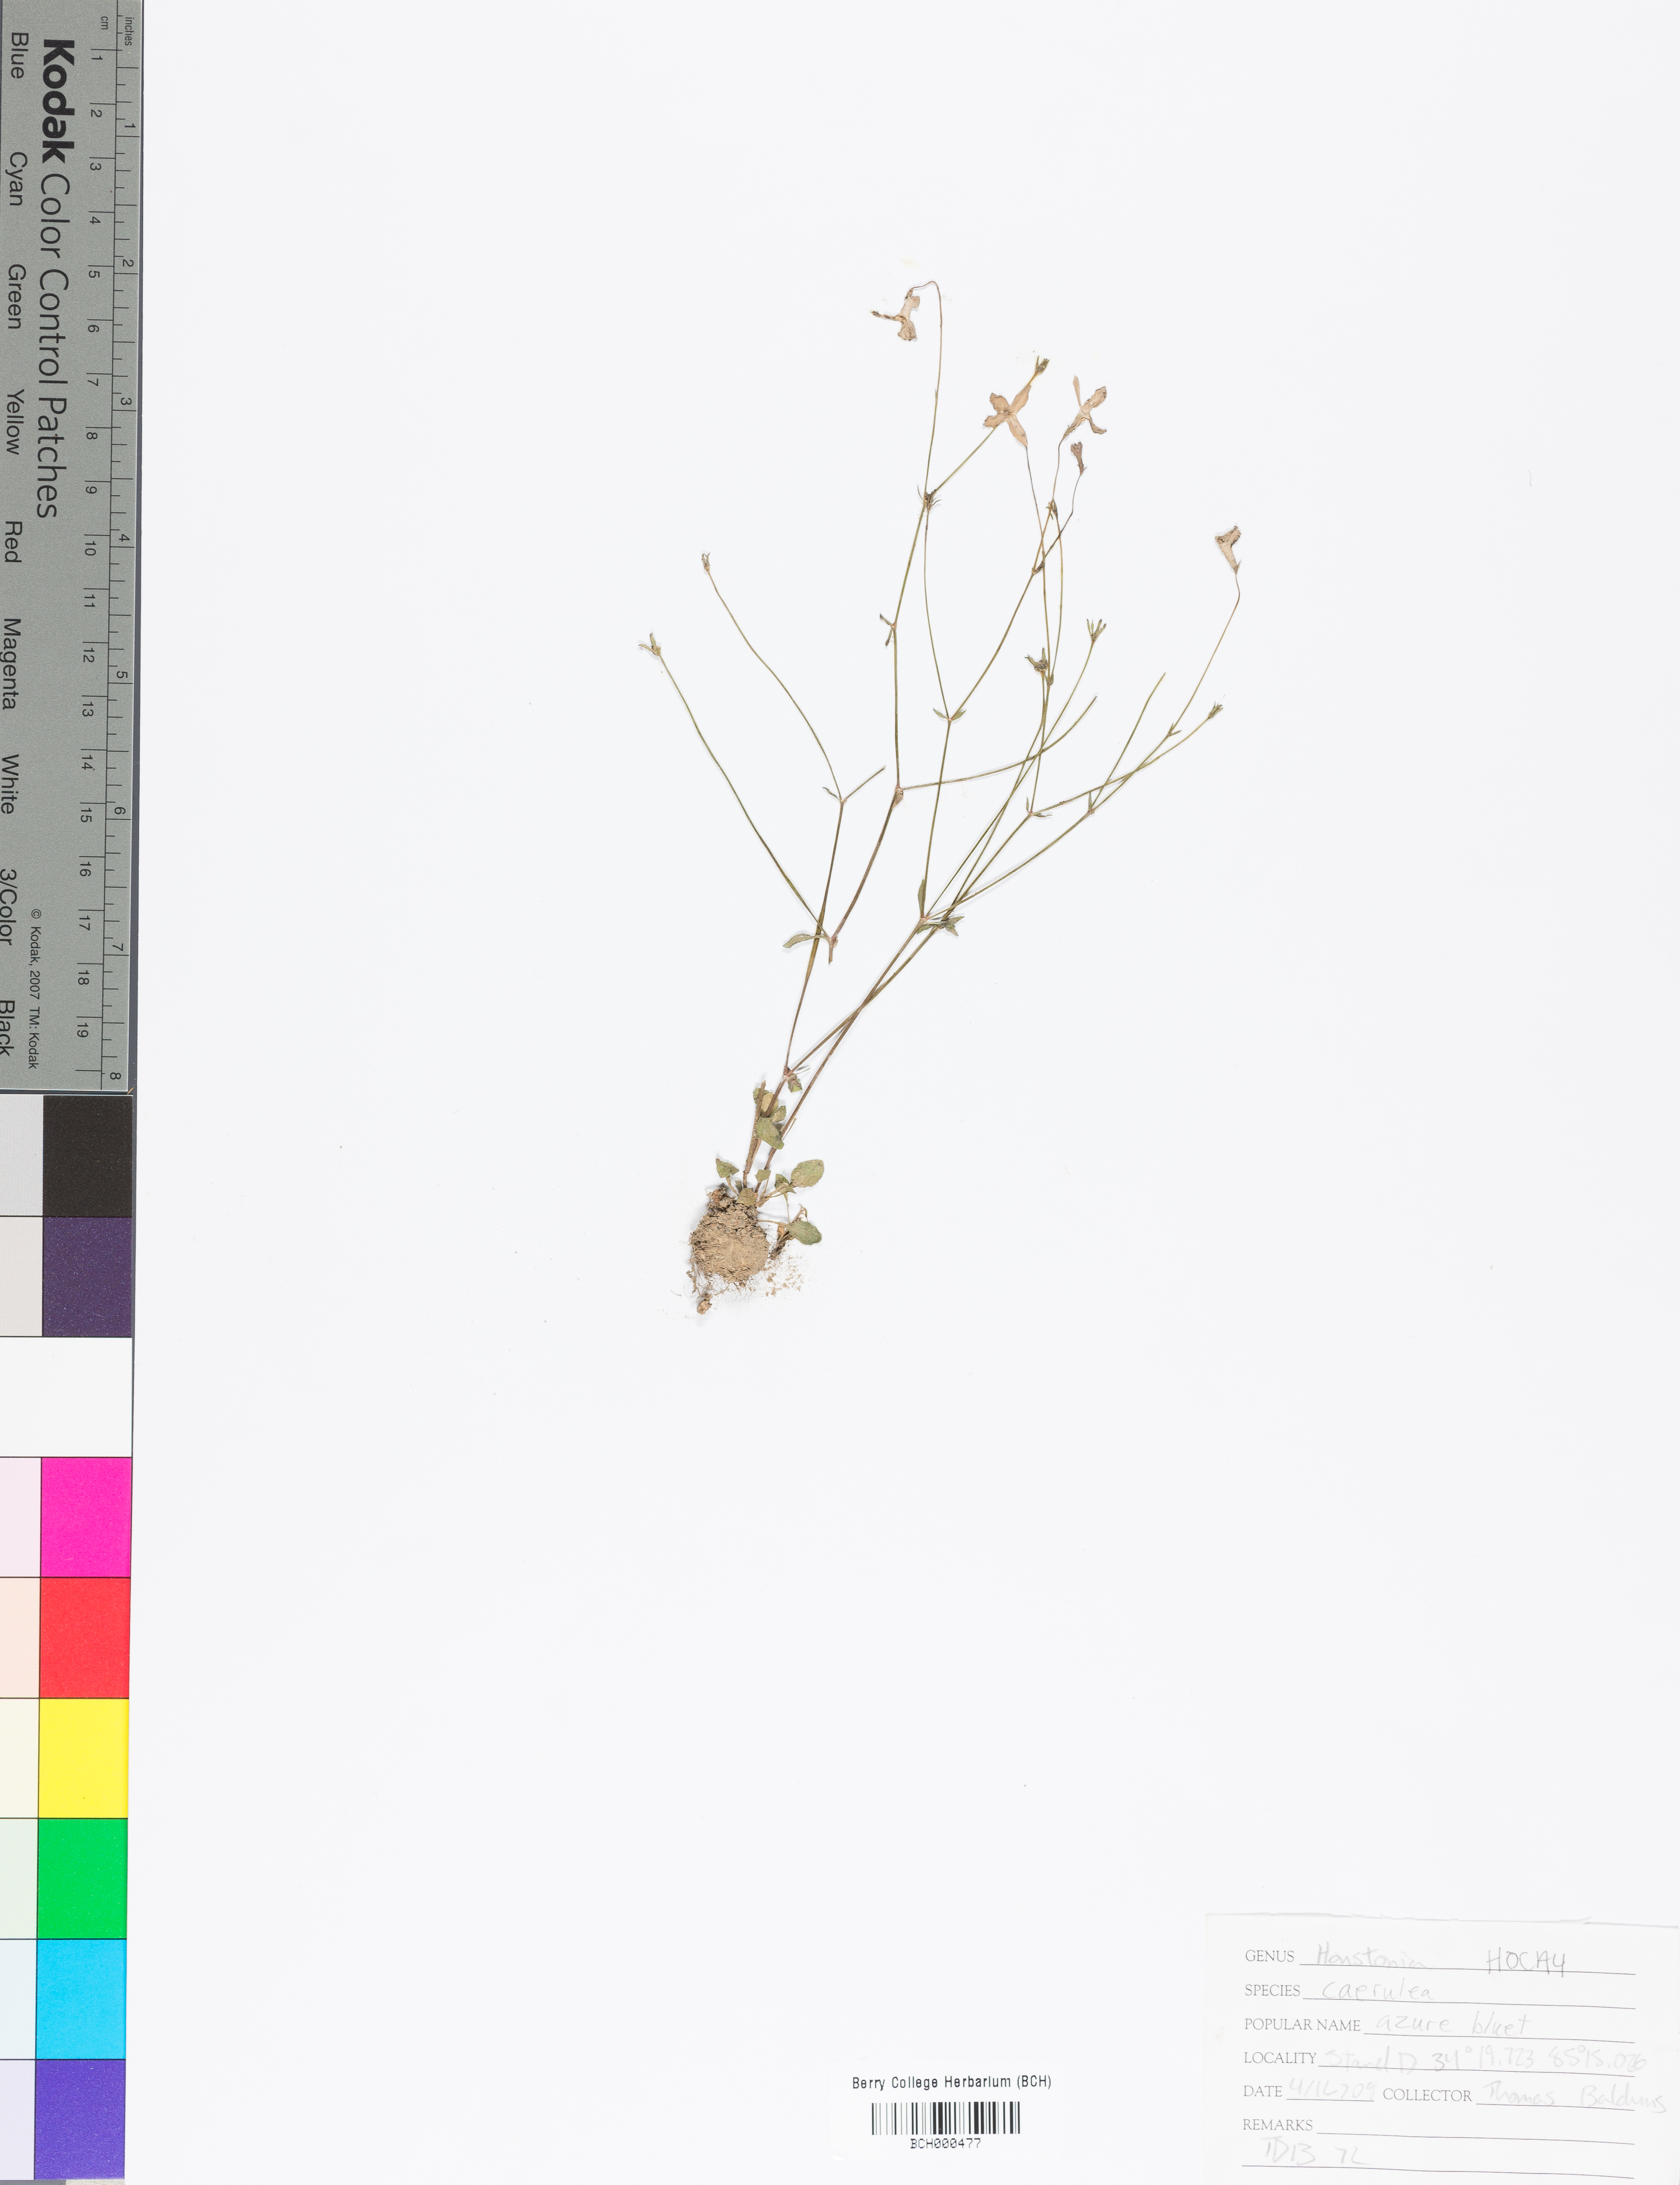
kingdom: Plantae
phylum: Tracheophyta
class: Magnoliopsida
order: Gentianales
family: Rubiaceae
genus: Houstonia
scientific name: Houstonia caerulea
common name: Bluets
